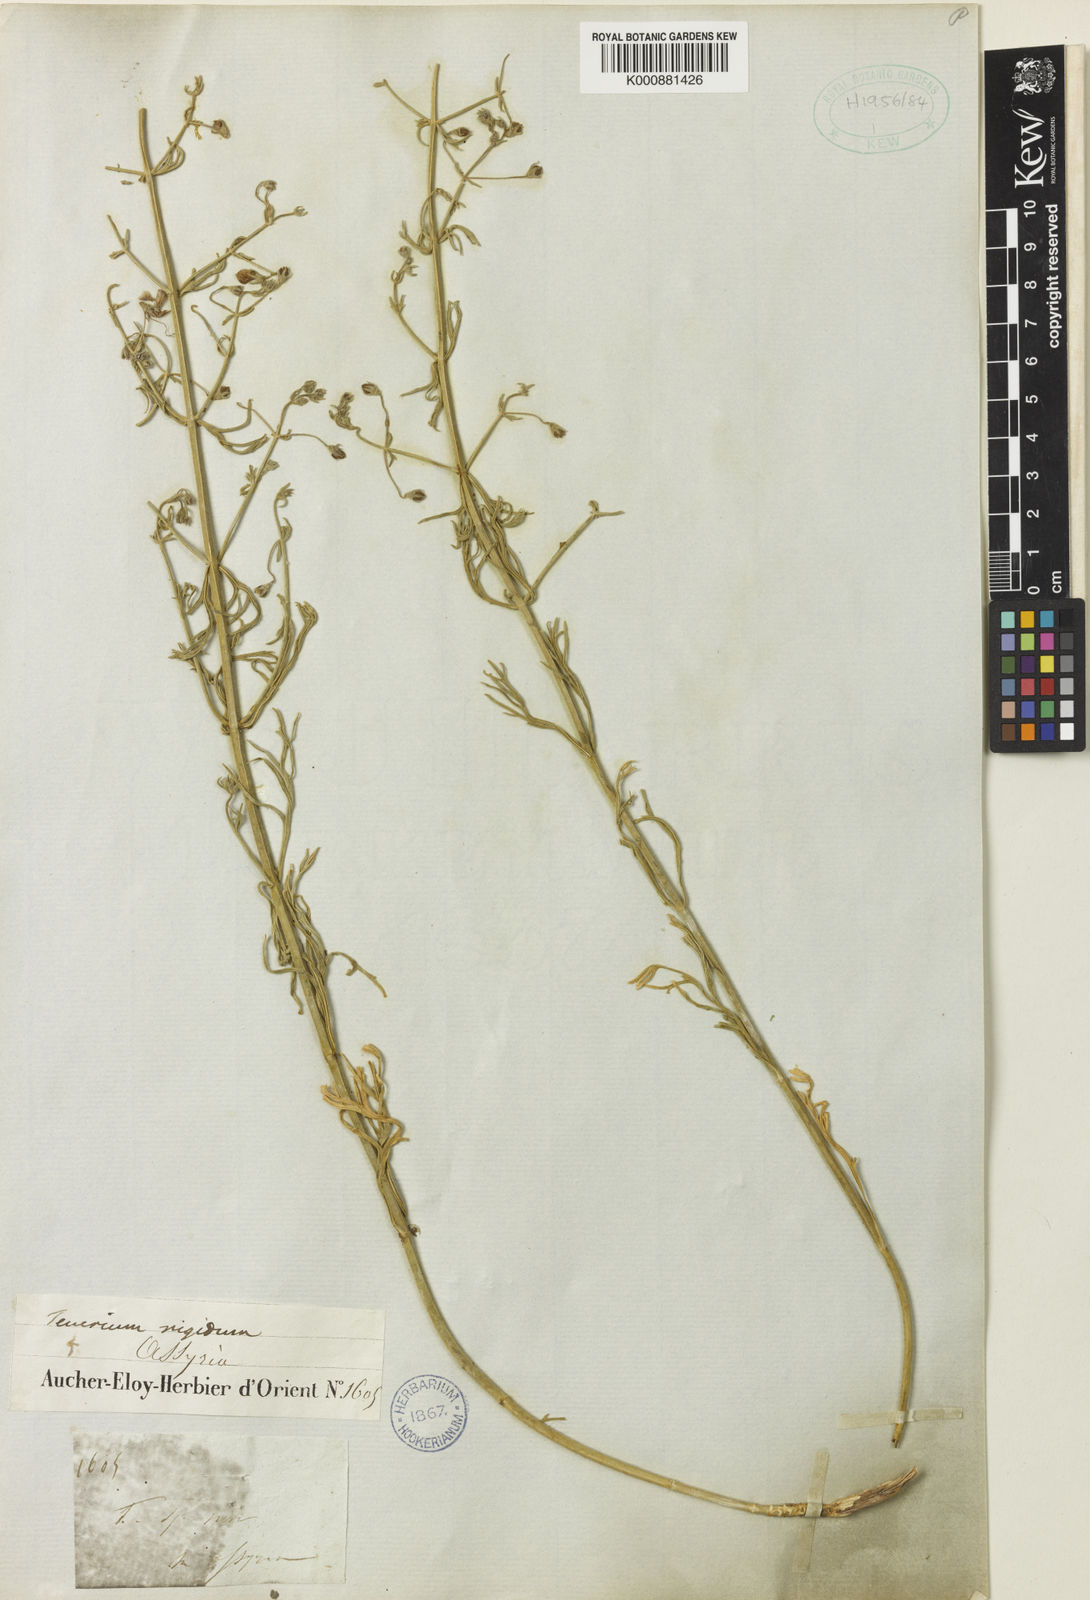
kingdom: Plantae
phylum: Tracheophyta
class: Magnoliopsida
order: Lamiales
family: Lamiaceae
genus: Teucrium
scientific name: Teucrium rigidum
